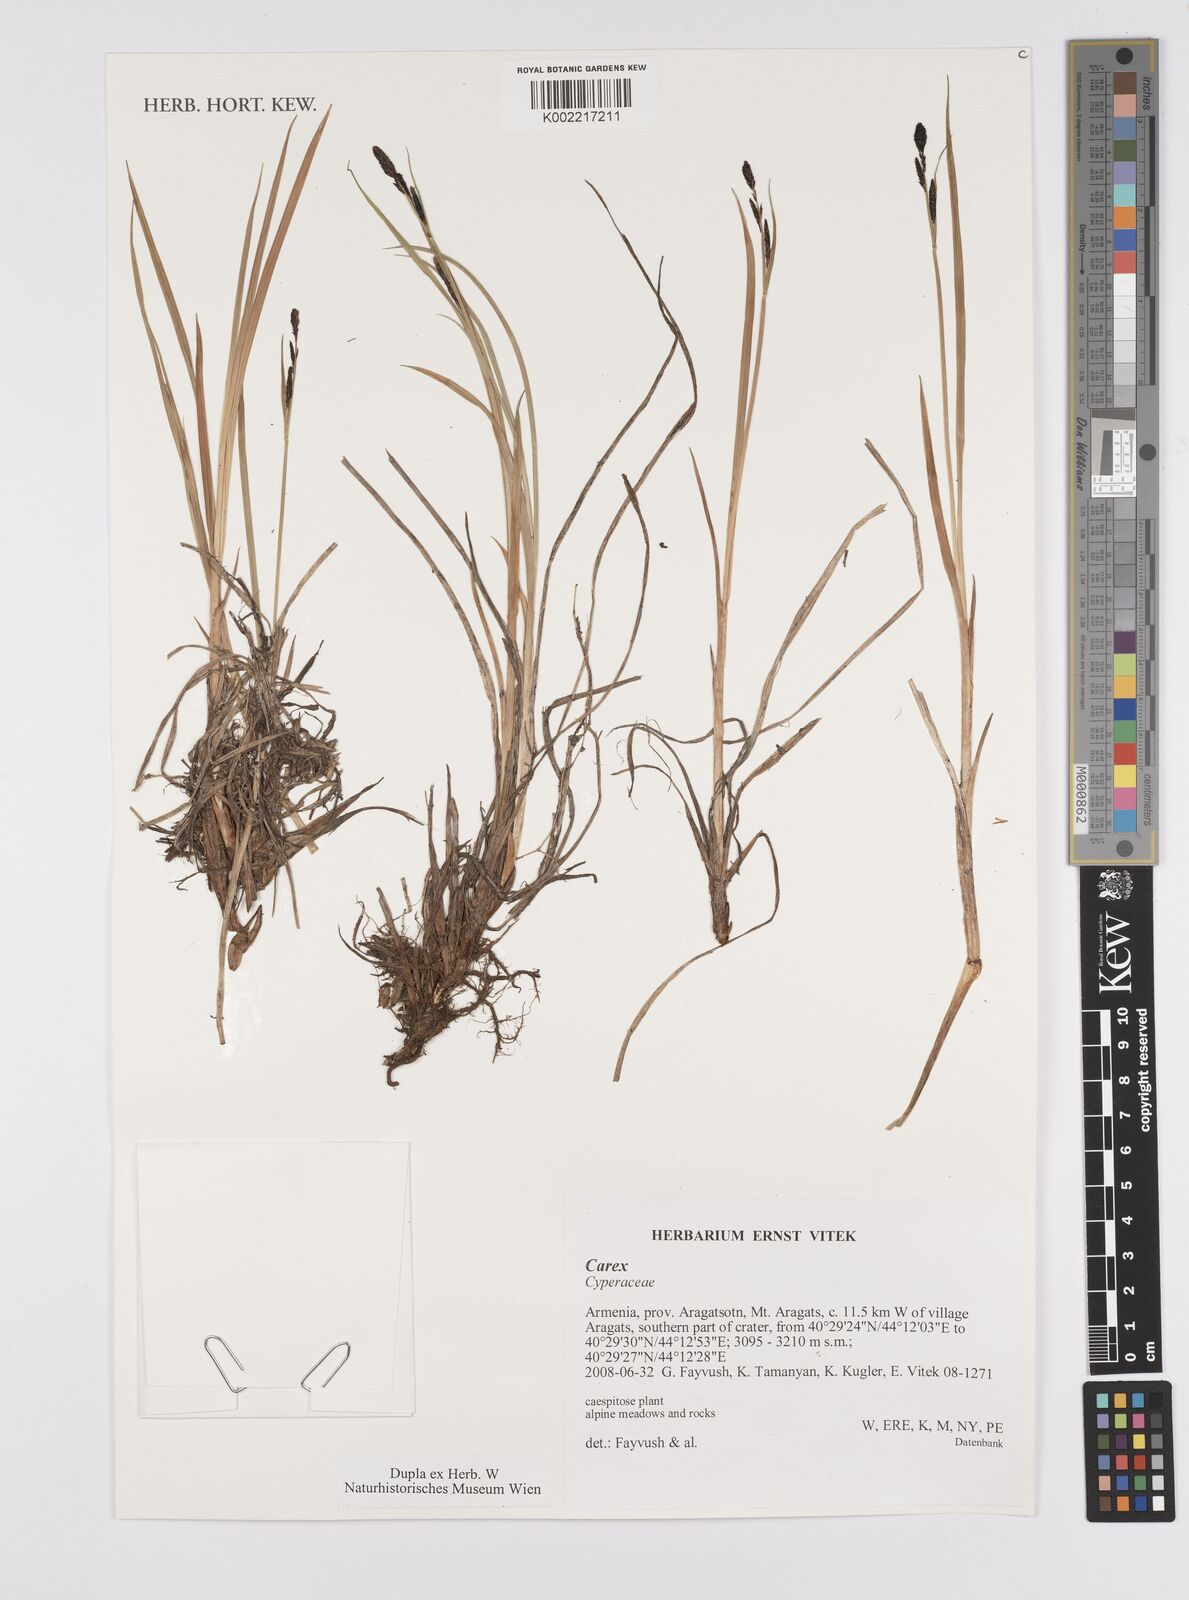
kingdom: Plantae
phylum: Tracheophyta
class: Liliopsida
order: Poales
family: Cyperaceae
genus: Carex
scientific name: Carex
